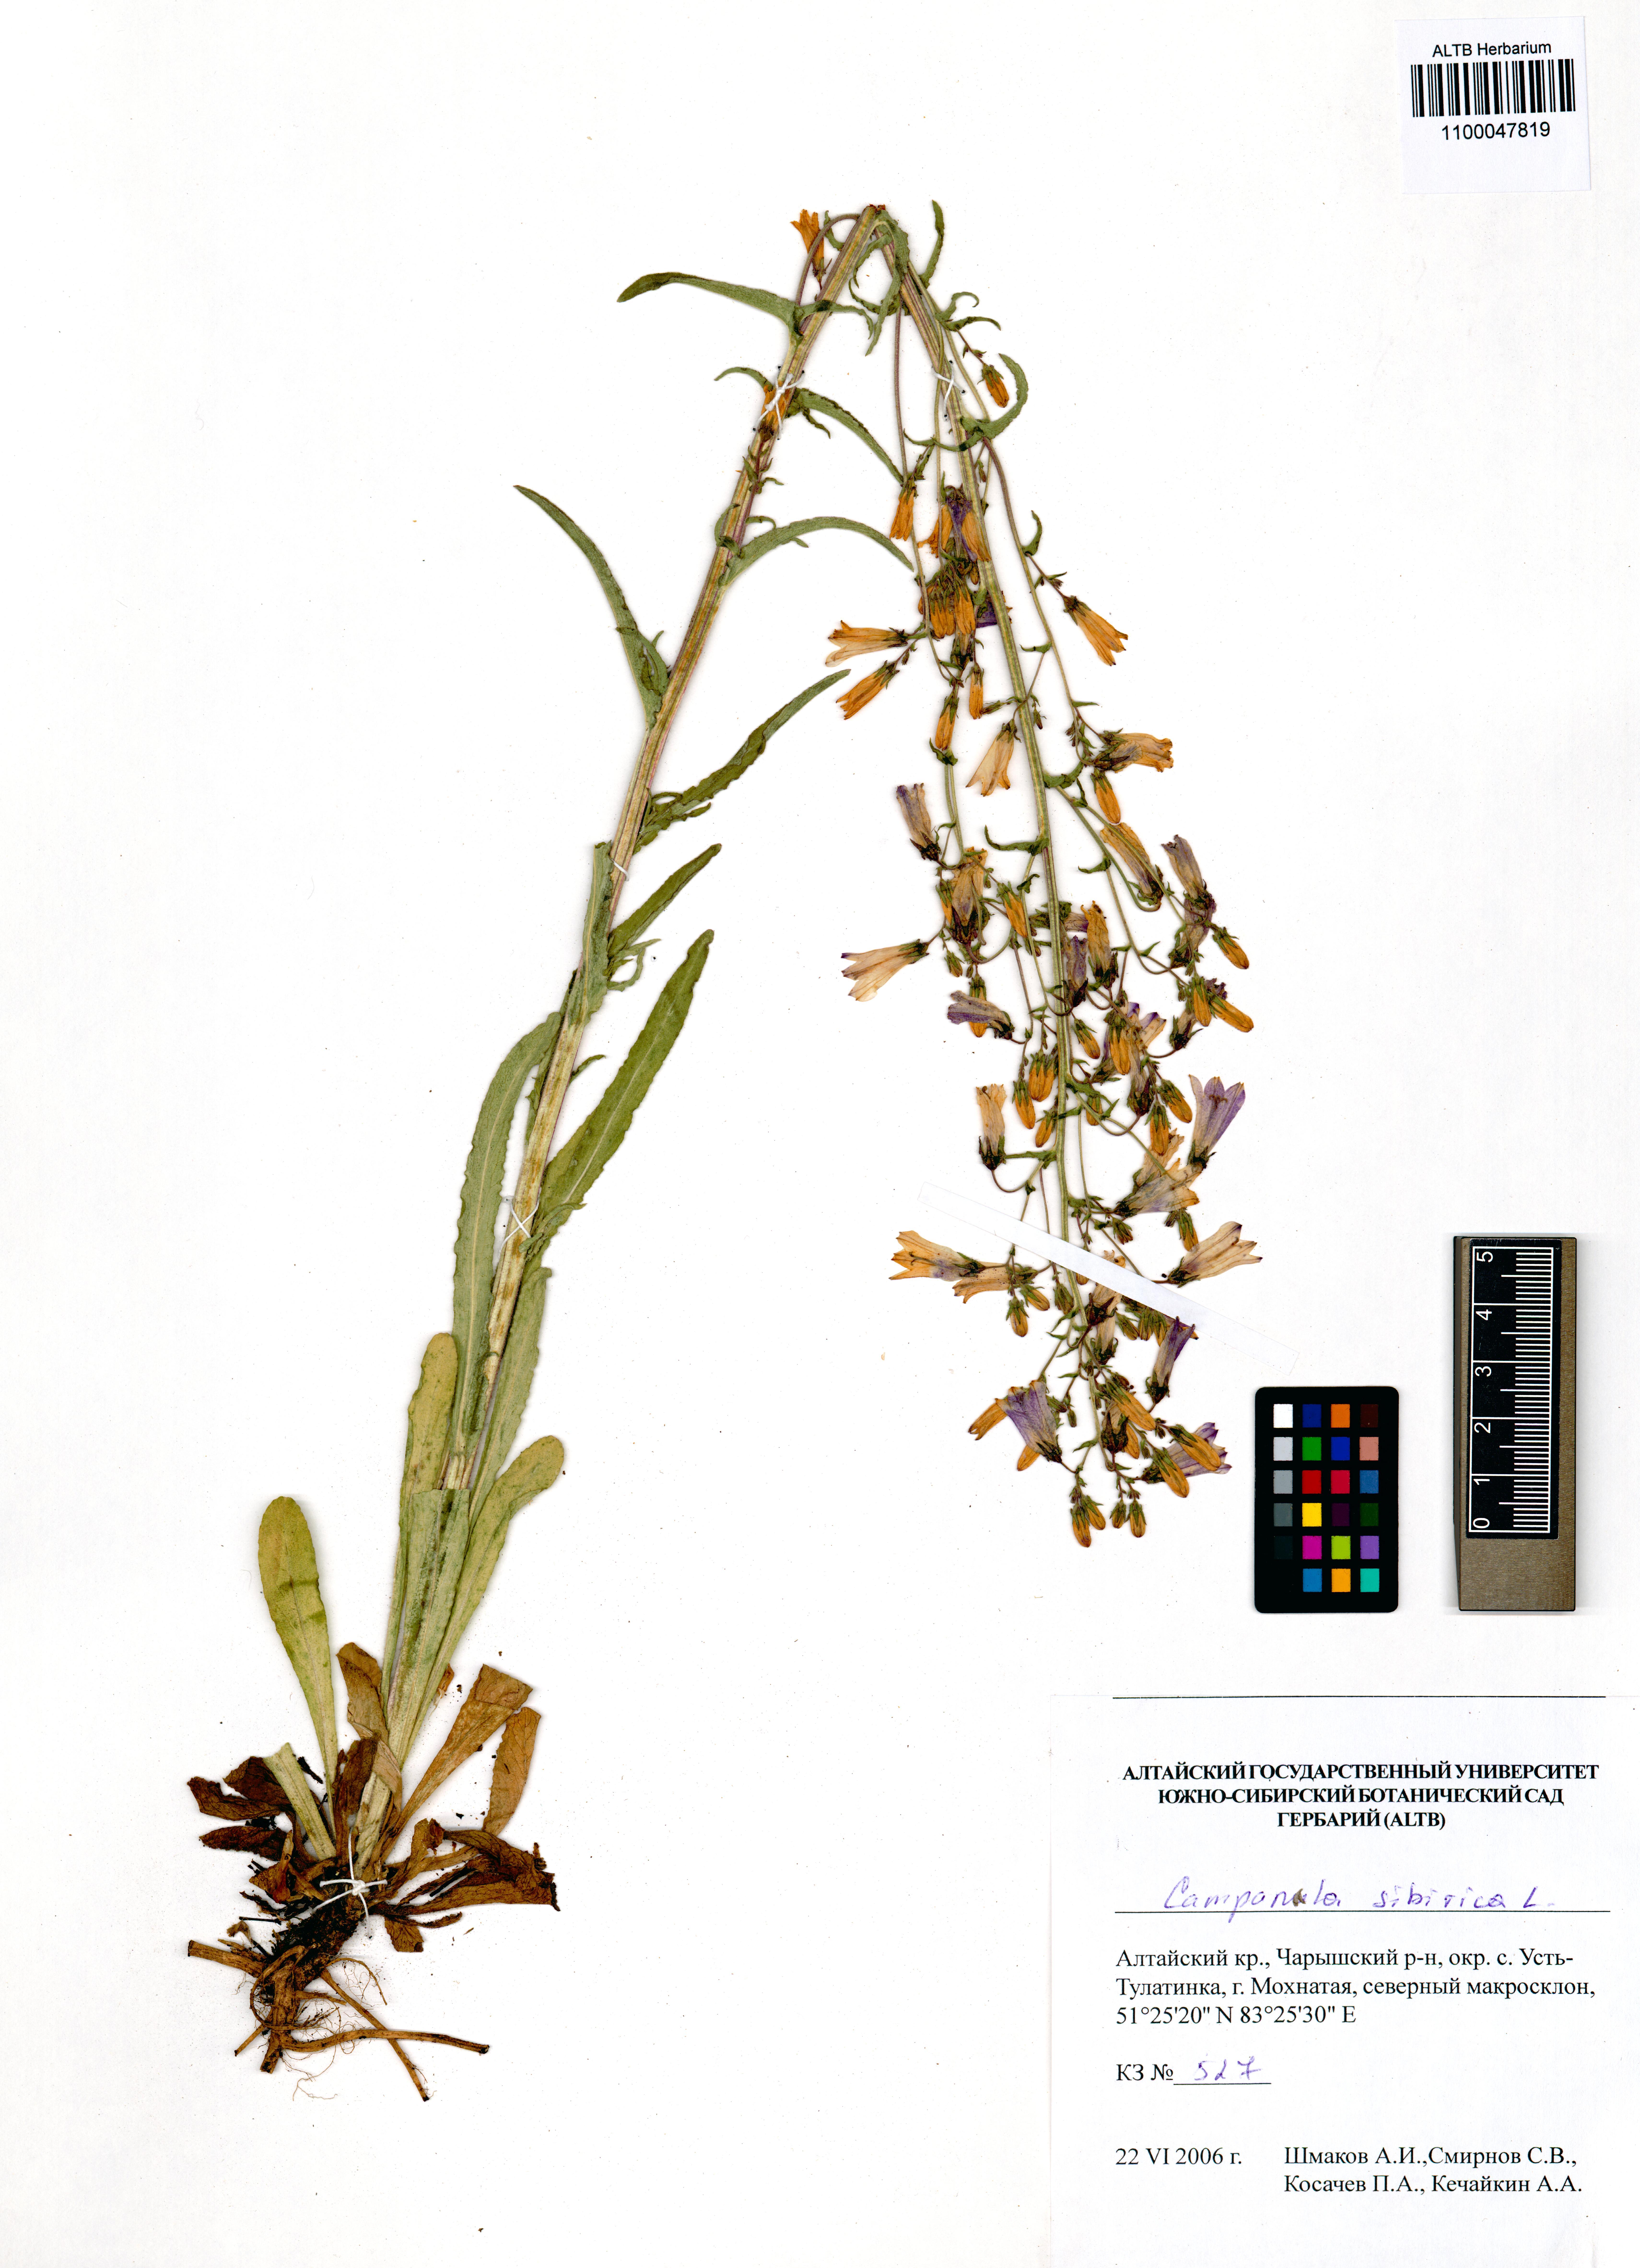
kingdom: Plantae
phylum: Tracheophyta
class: Magnoliopsida
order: Asterales
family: Campanulaceae
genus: Campanula
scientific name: Campanula sibirica
